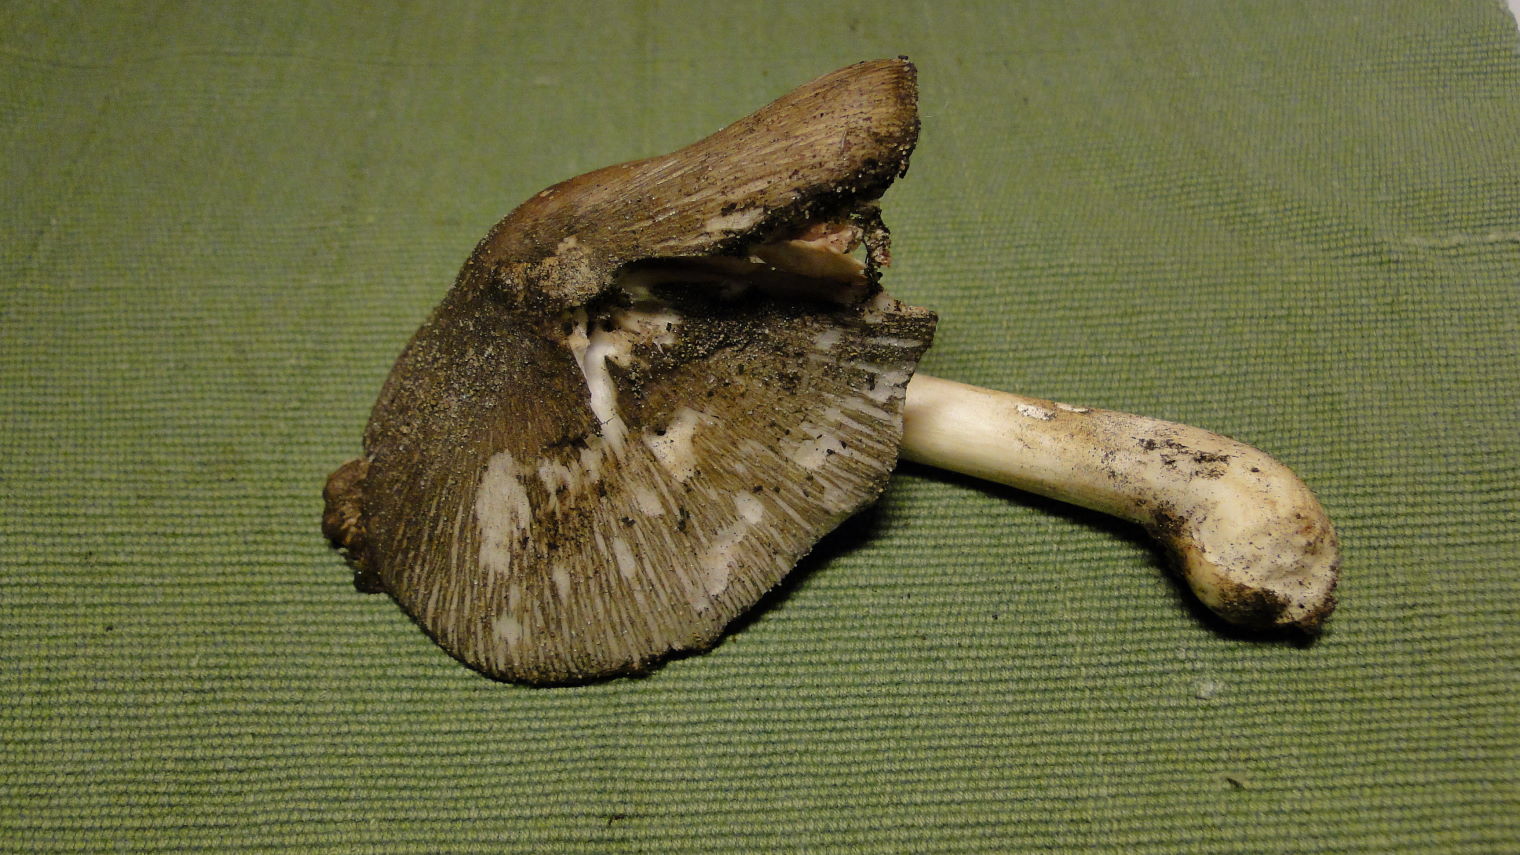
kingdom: Fungi
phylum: Basidiomycota
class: Agaricomycetes
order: Agaricales
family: Pluteaceae
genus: Volvariella
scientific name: Volvariella caesiotincta
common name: ved-posesvamp
